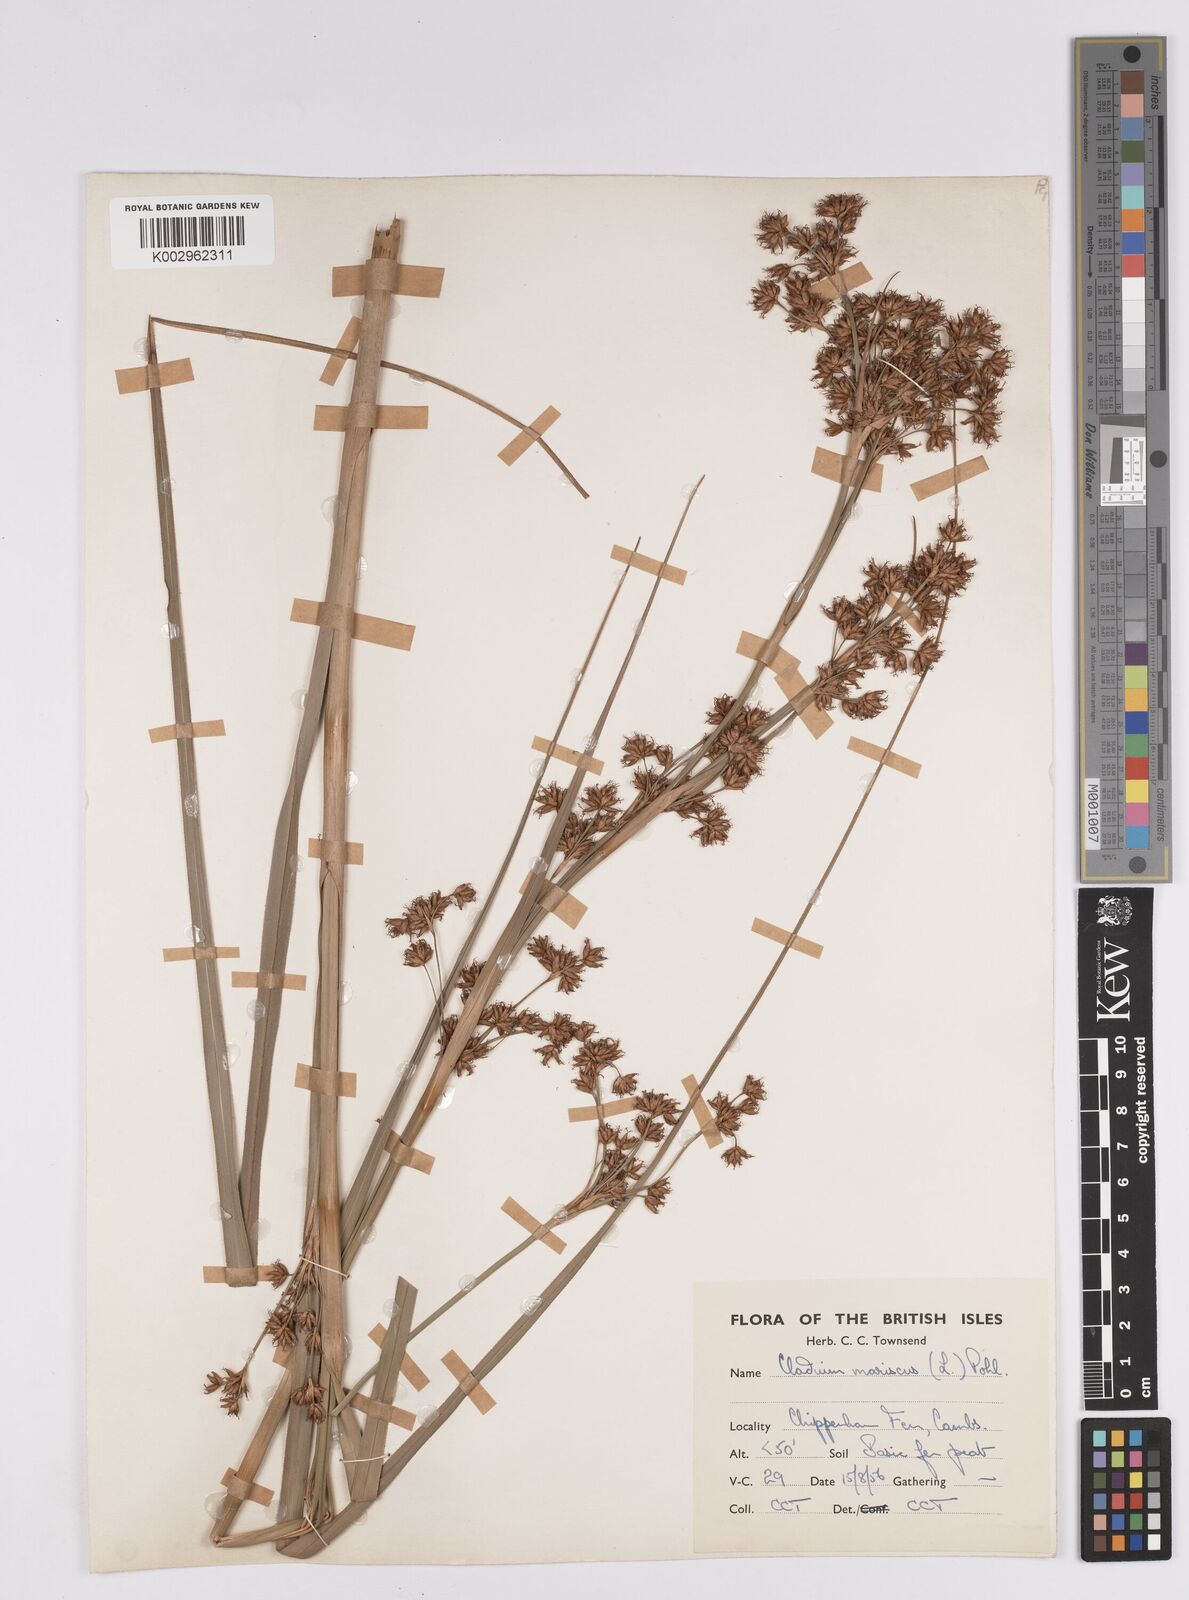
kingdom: Plantae
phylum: Tracheophyta
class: Liliopsida
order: Poales
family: Cyperaceae
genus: Cladium
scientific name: Cladium mariscus
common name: Great fen-sedge
